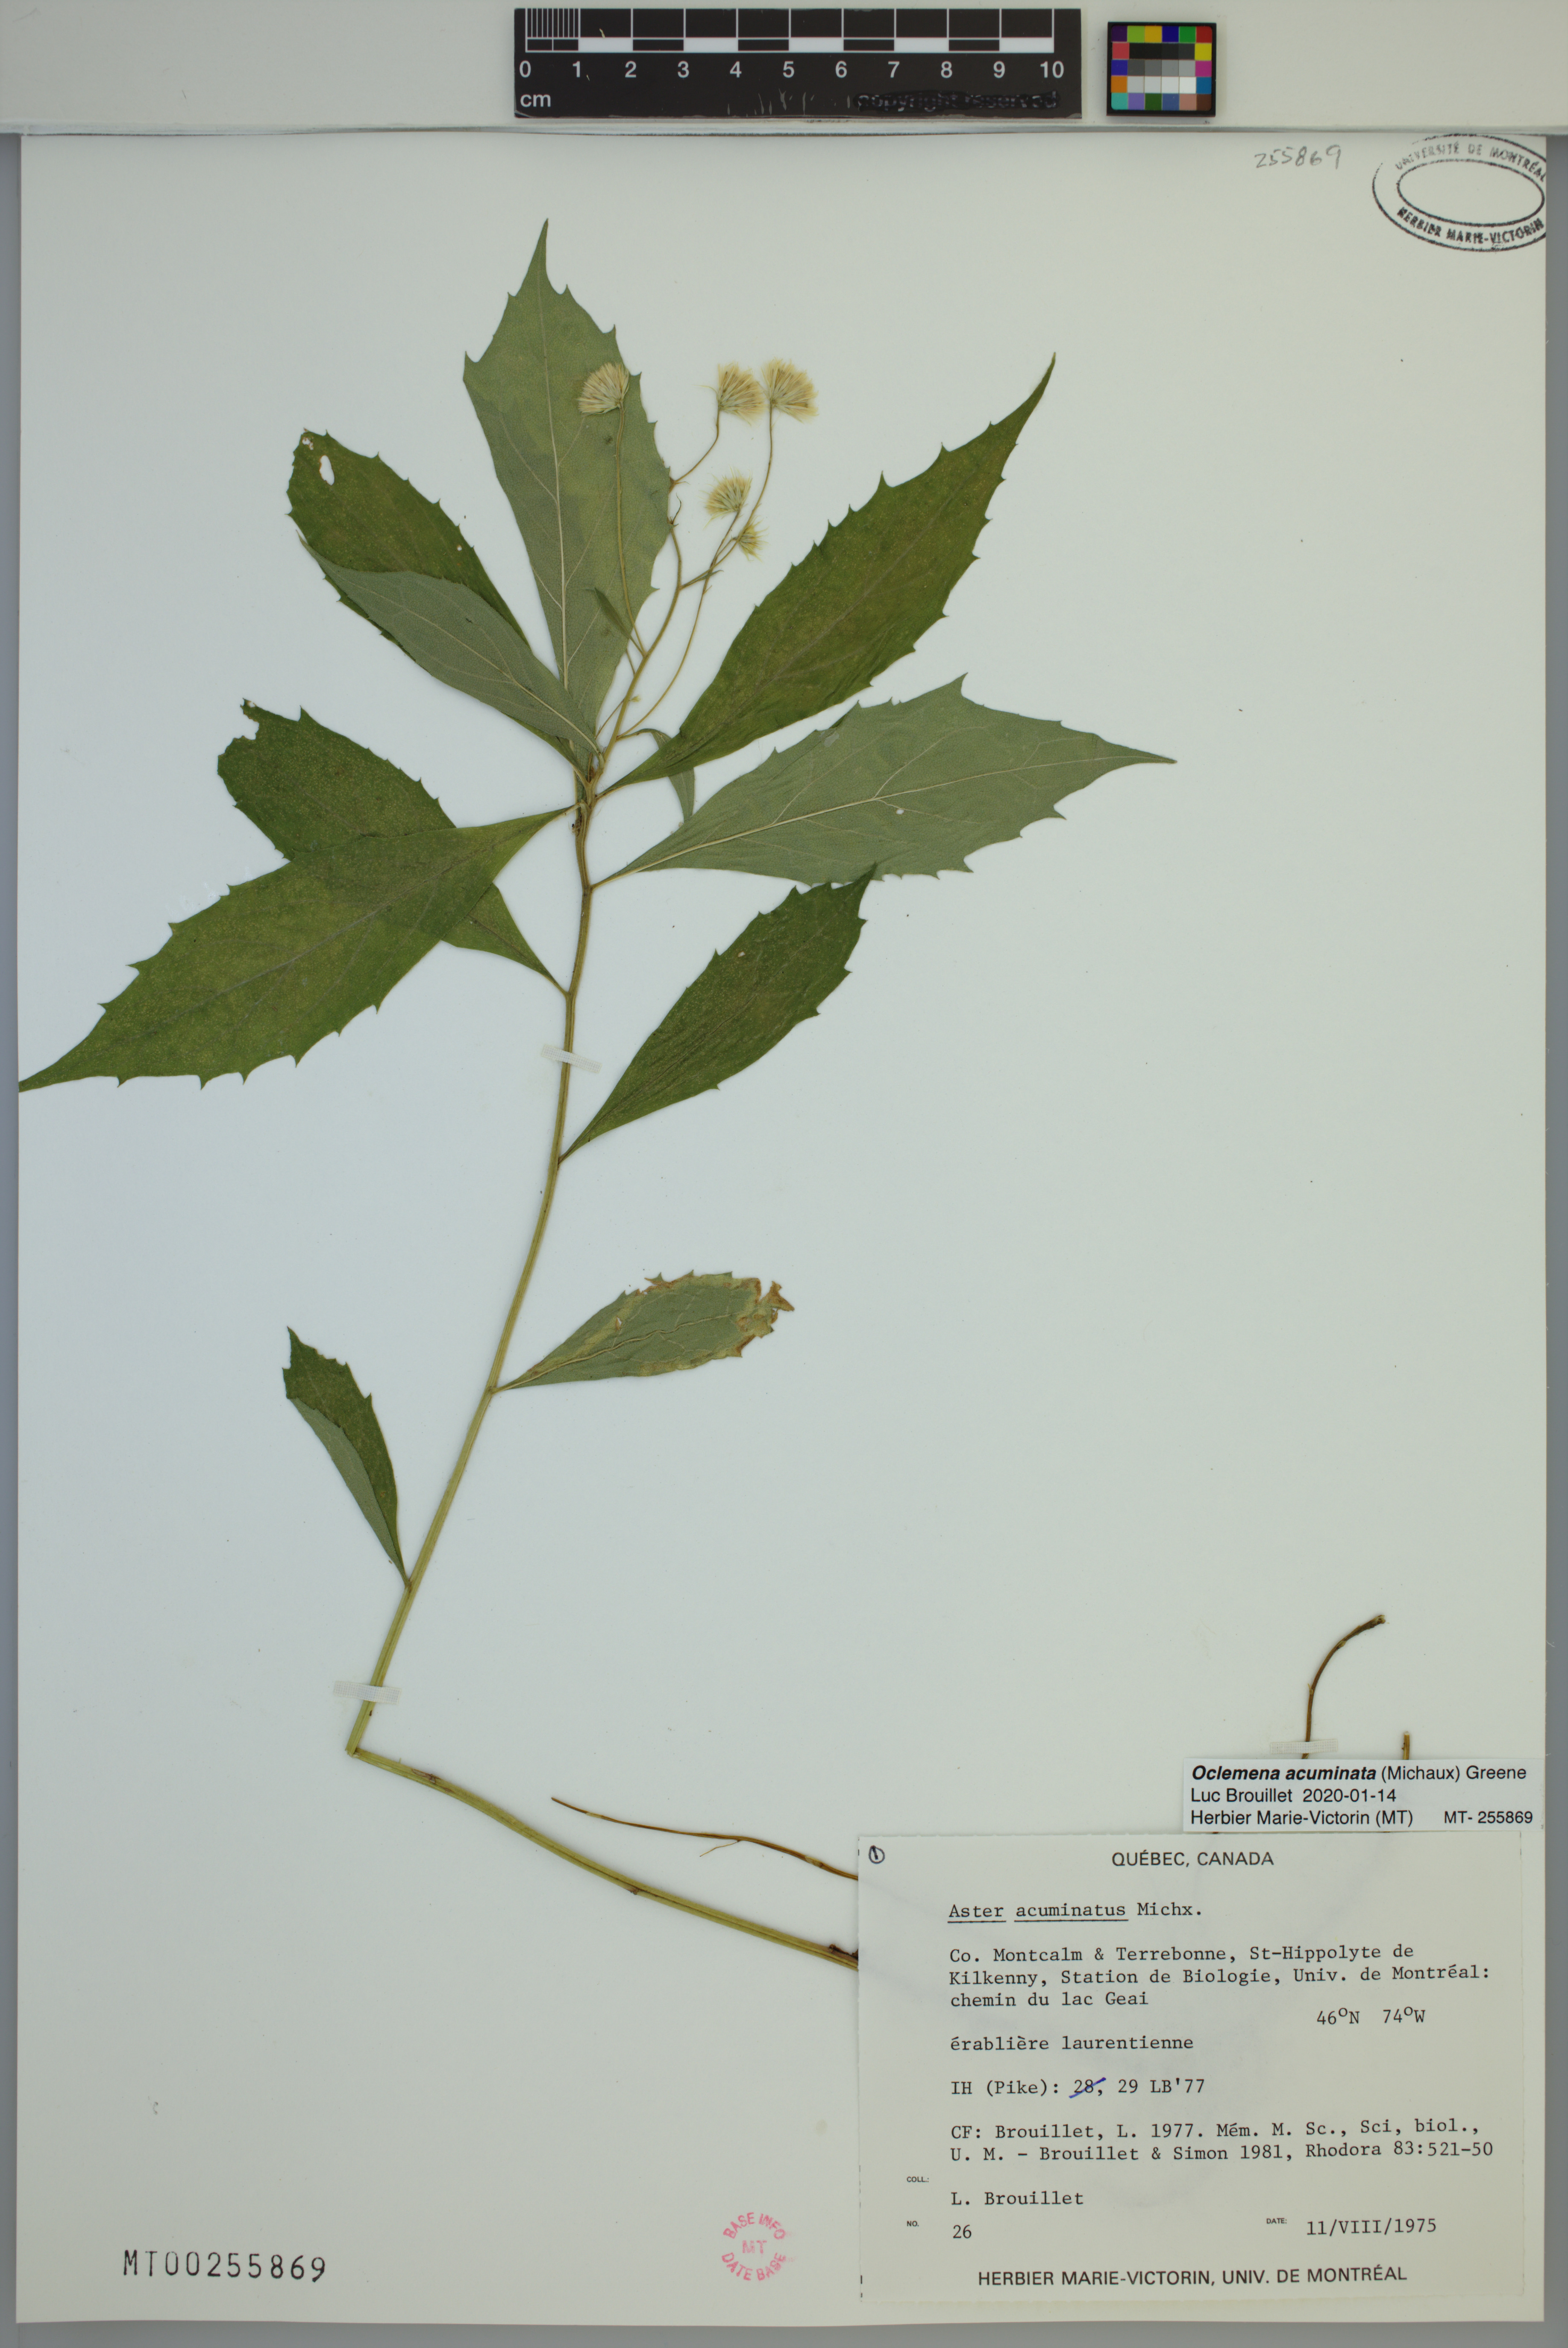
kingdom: Plantae
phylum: Tracheophyta
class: Magnoliopsida
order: Asterales
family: Asteraceae
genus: Oclemena
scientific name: Oclemena acuminata
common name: Mountain aster
